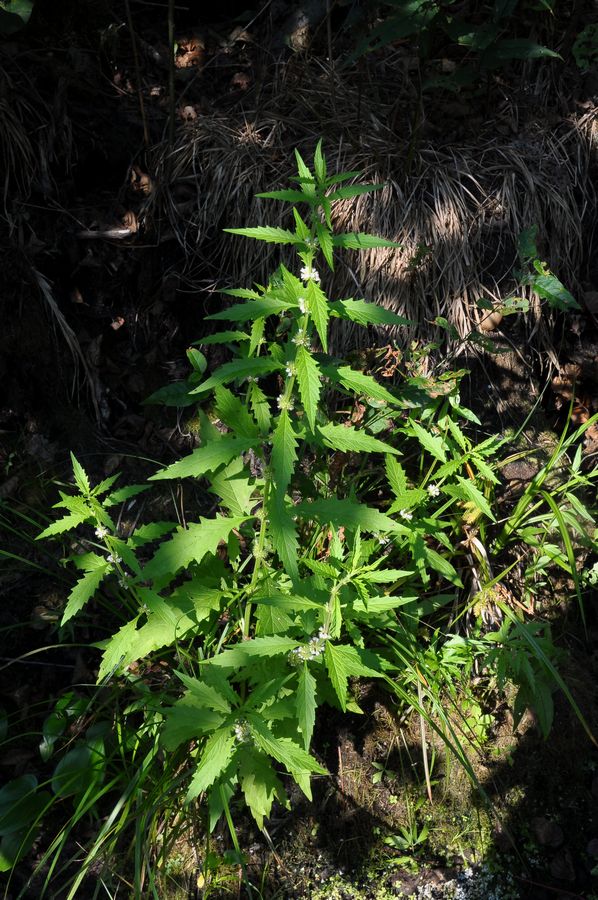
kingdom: Plantae
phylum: Tracheophyta
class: Magnoliopsida
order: Lamiales
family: Lamiaceae
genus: Lycopus
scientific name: Lycopus europaeus
